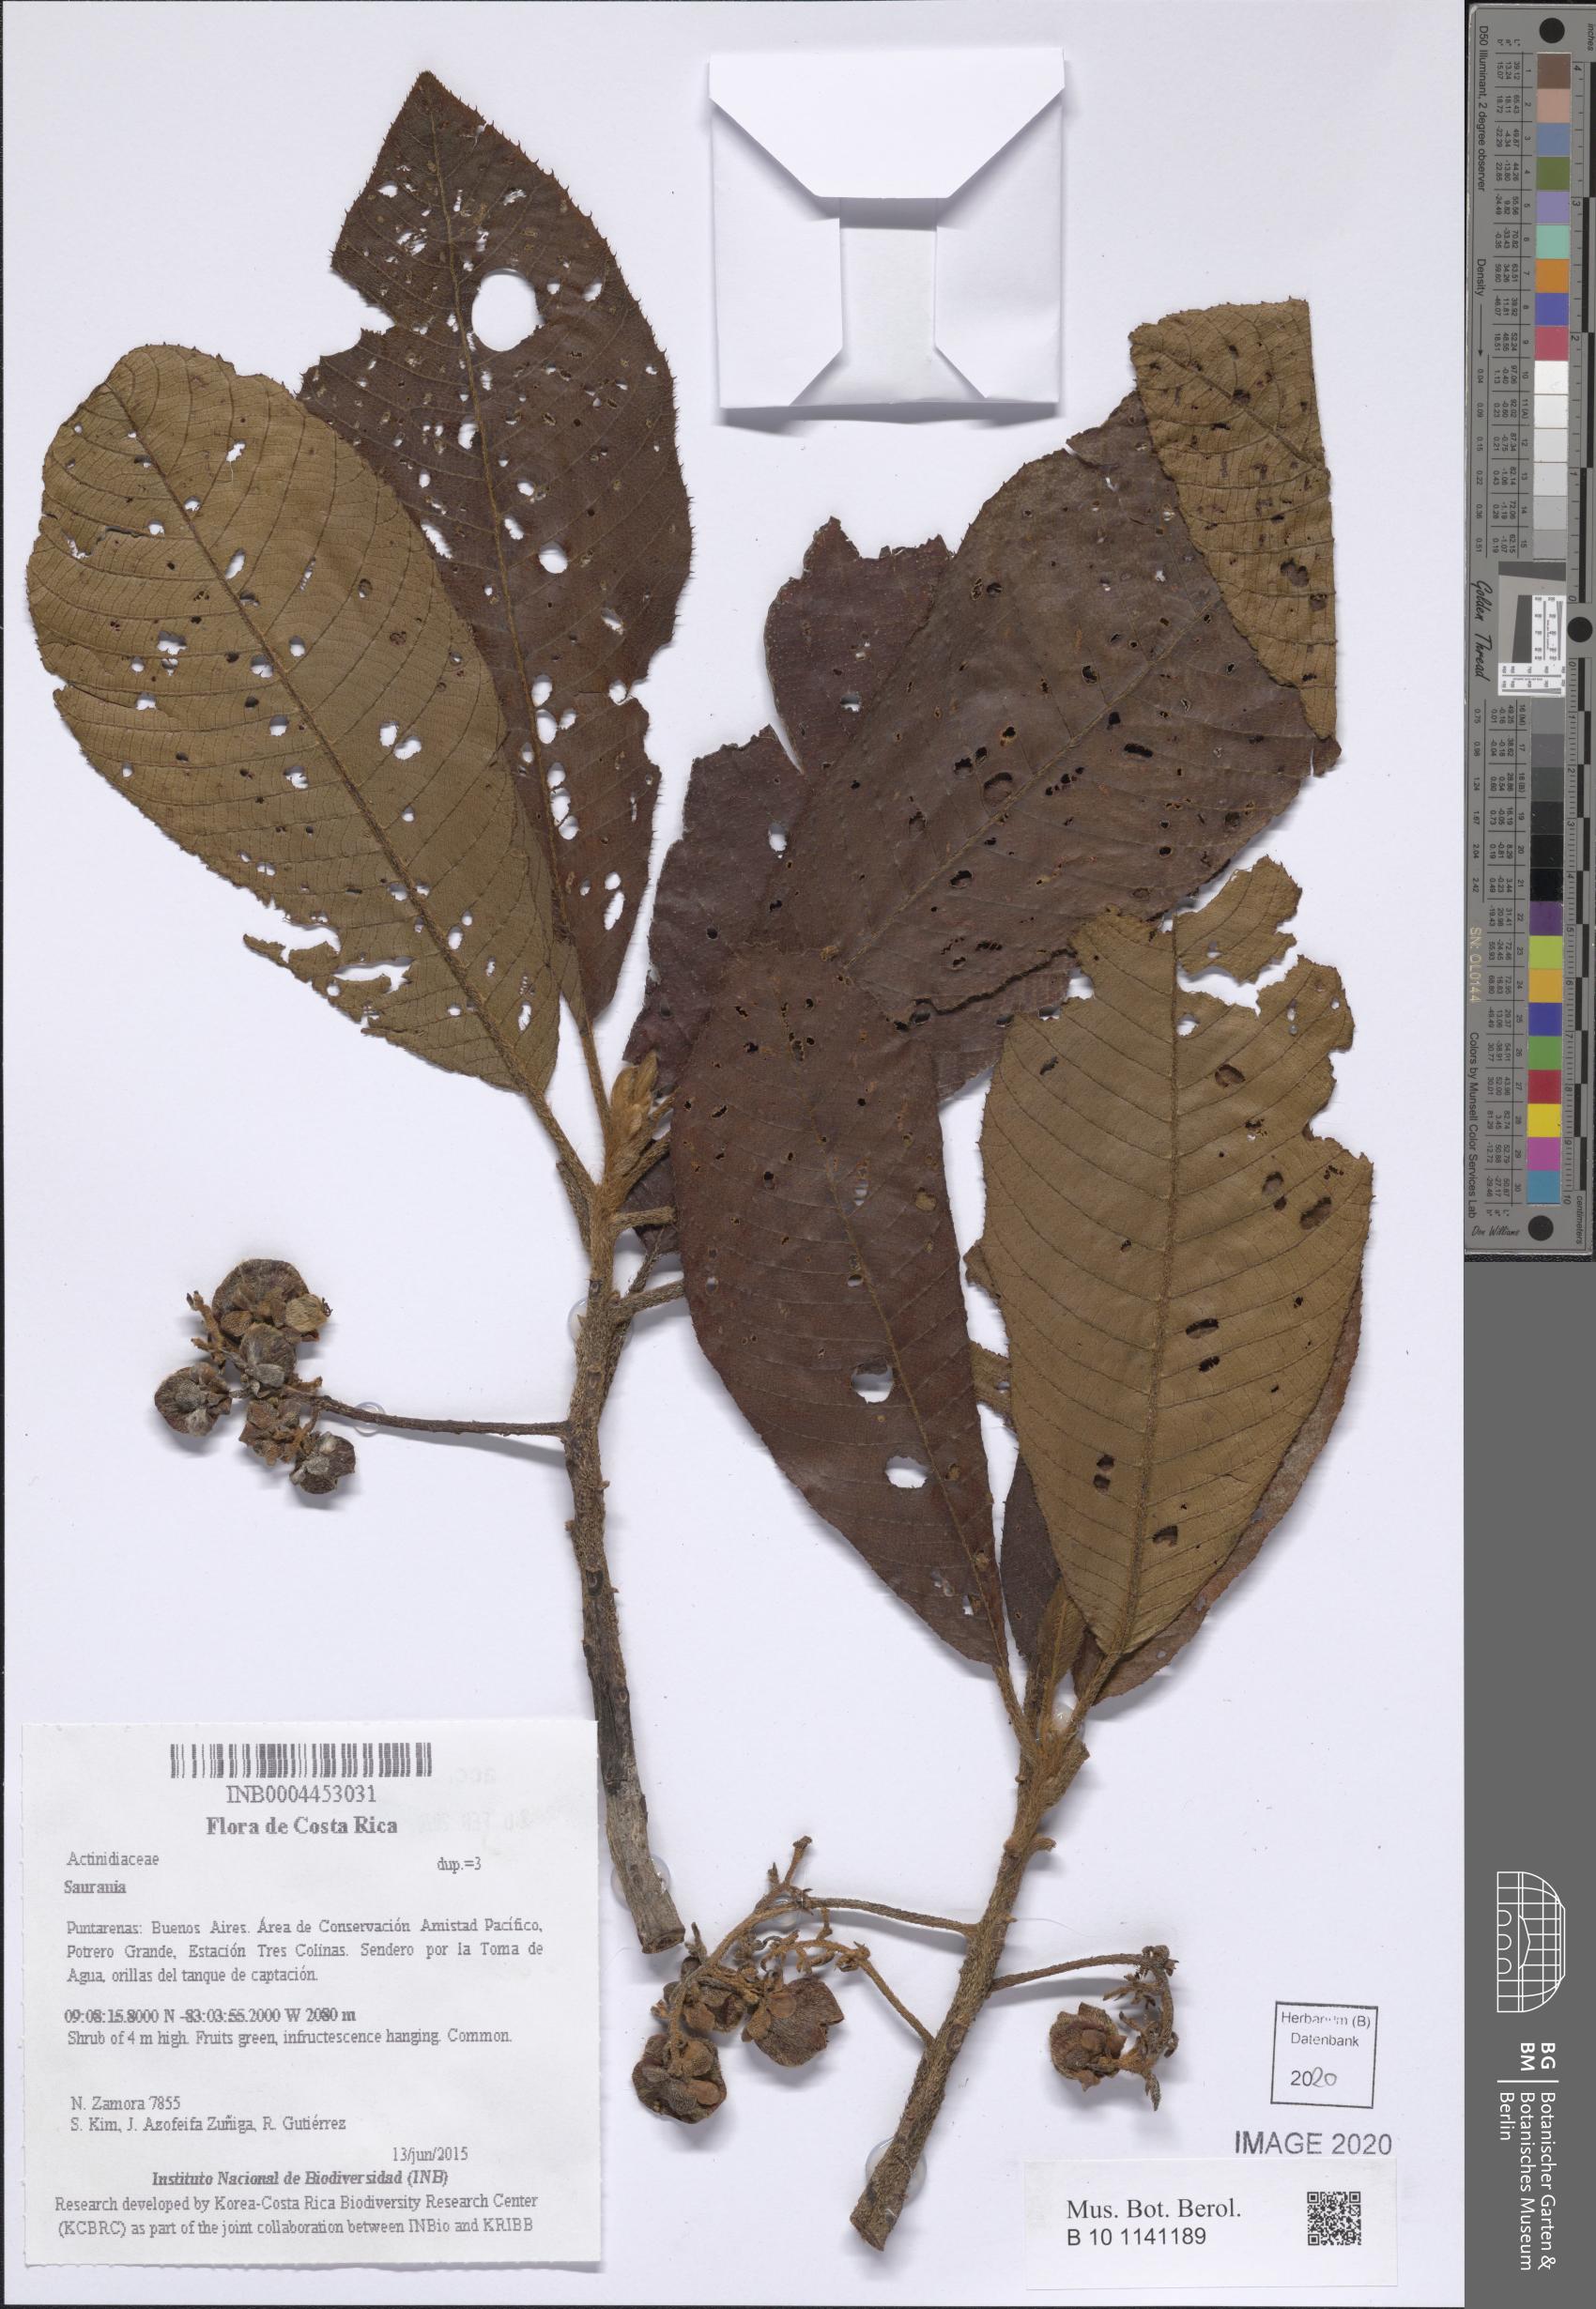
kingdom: Plantae
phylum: Tracheophyta
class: Magnoliopsida
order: Ericales
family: Actinidiaceae
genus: Saurauia
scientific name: Saurauia
